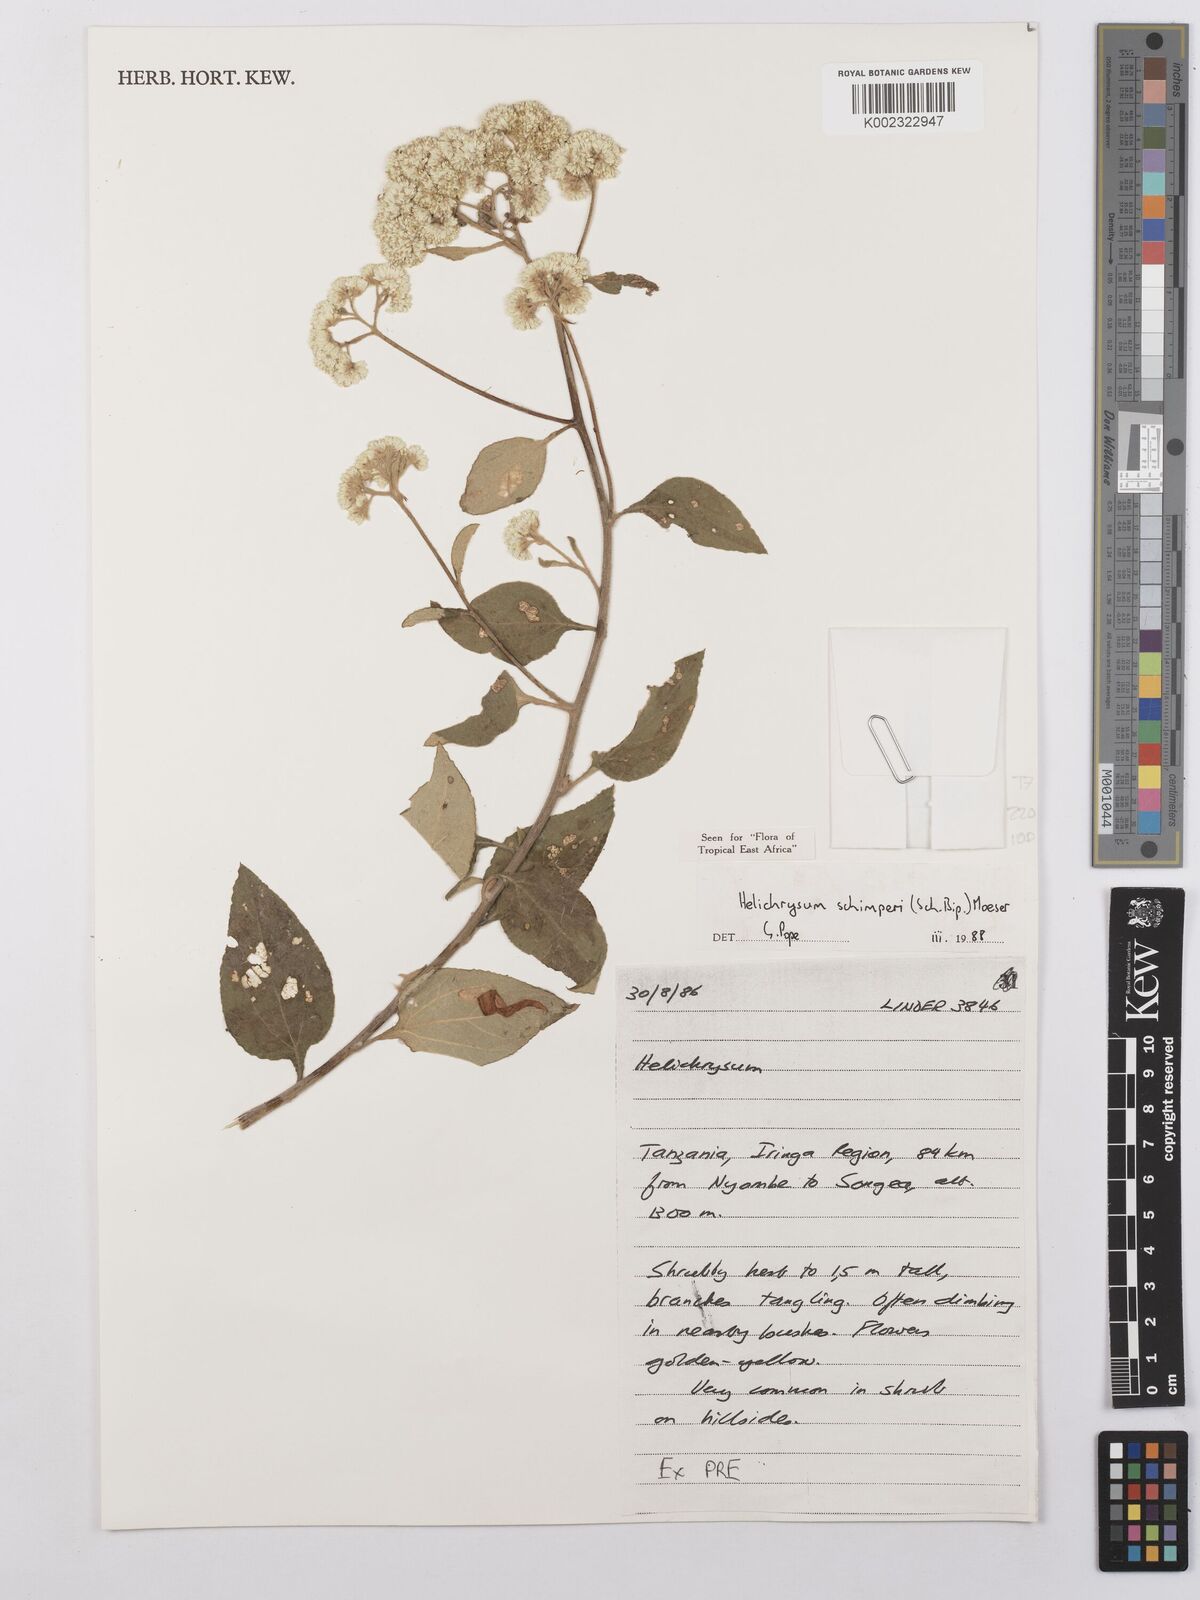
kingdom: Plantae
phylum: Tracheophyta
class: Magnoliopsida
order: Asterales
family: Asteraceae
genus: Helichrysum
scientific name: Helichrysum schimperi
